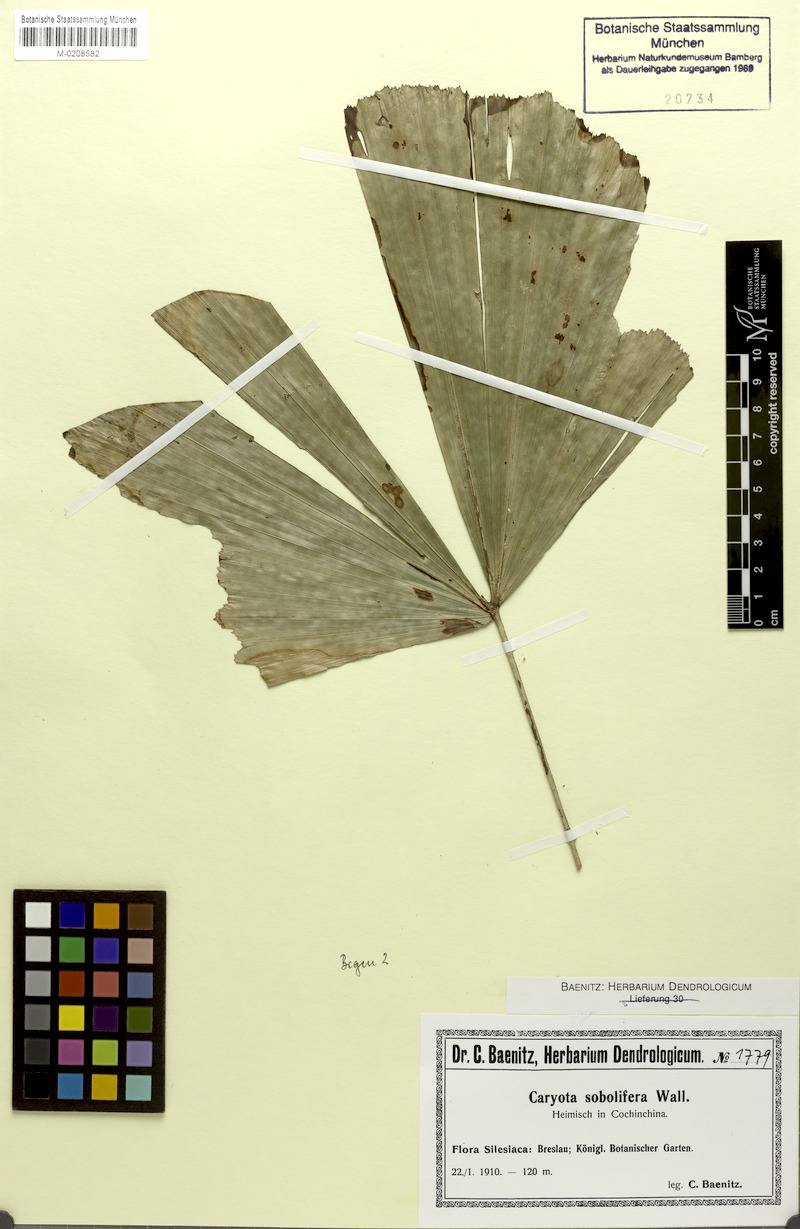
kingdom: Plantae
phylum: Tracheophyta
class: Liliopsida
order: Arecales
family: Arecaceae
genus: Caryota
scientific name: Caryota mitis
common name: Burmese fishtail palm
